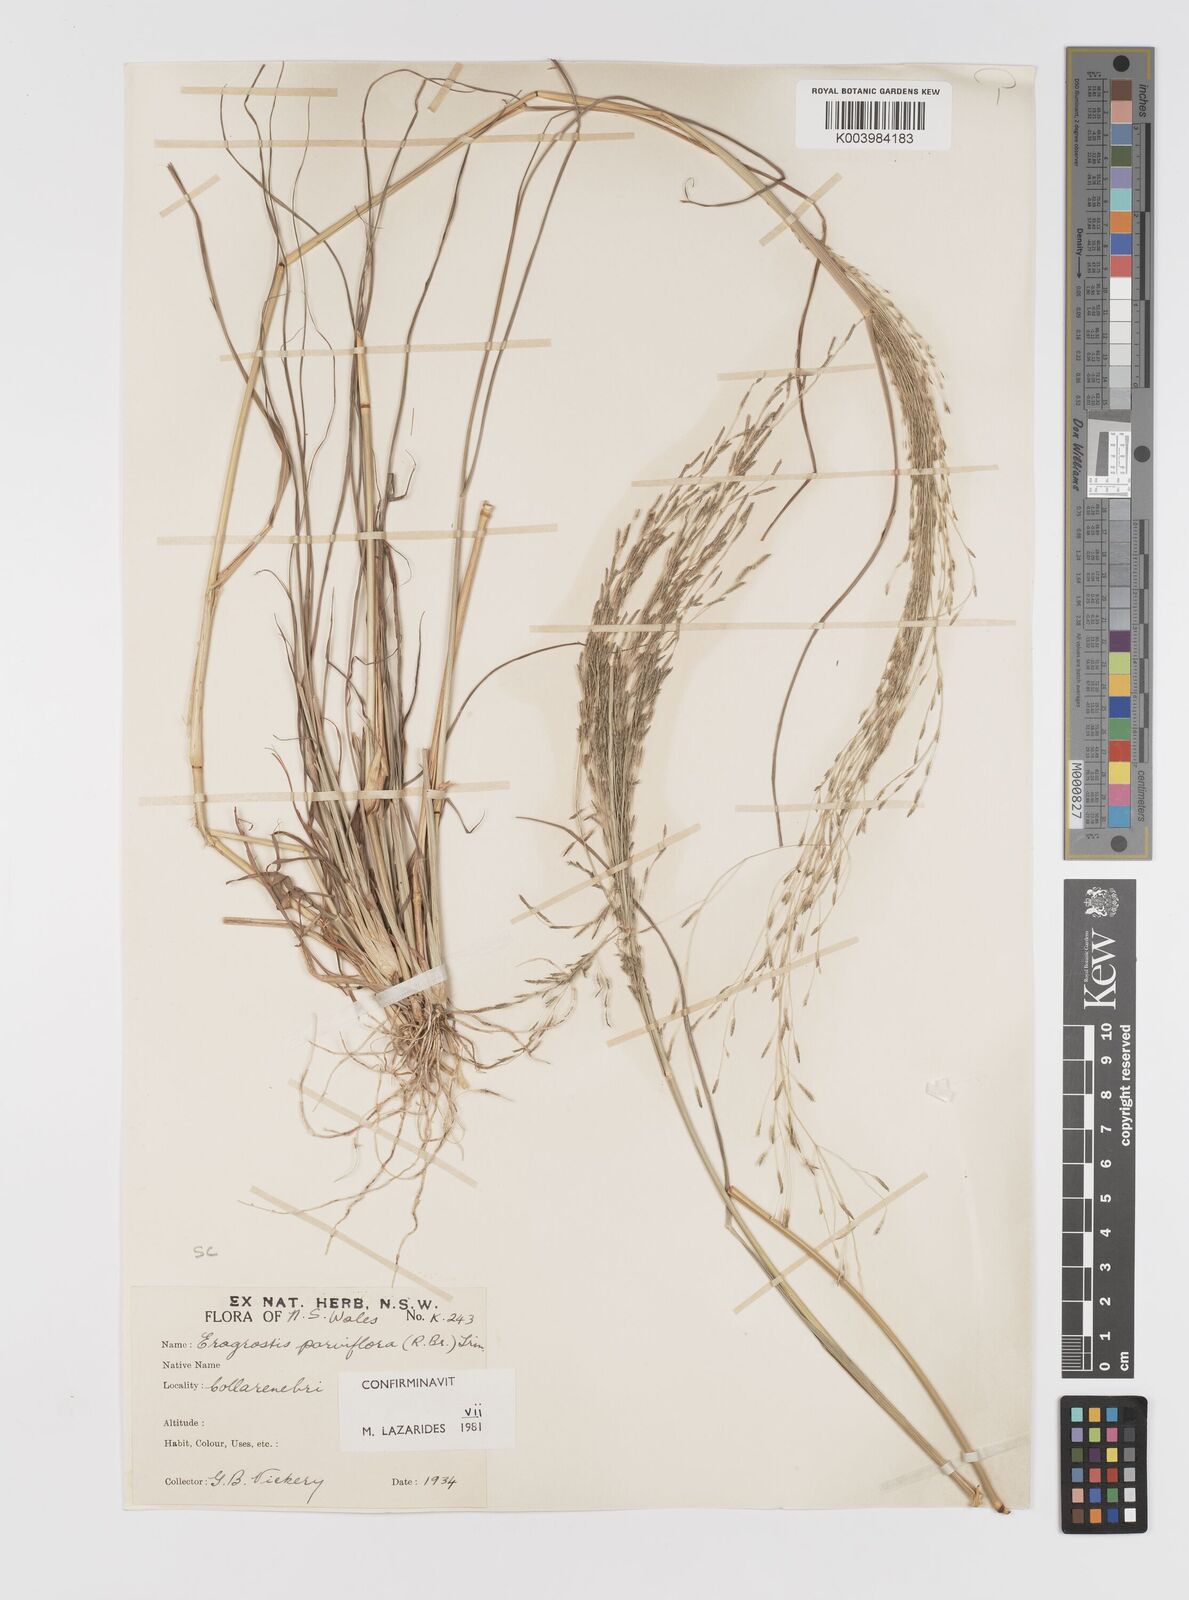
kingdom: Plantae
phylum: Tracheophyta
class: Liliopsida
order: Poales
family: Poaceae
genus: Eragrostis
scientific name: Eragrostis parviflora
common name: Weeping love-grass
